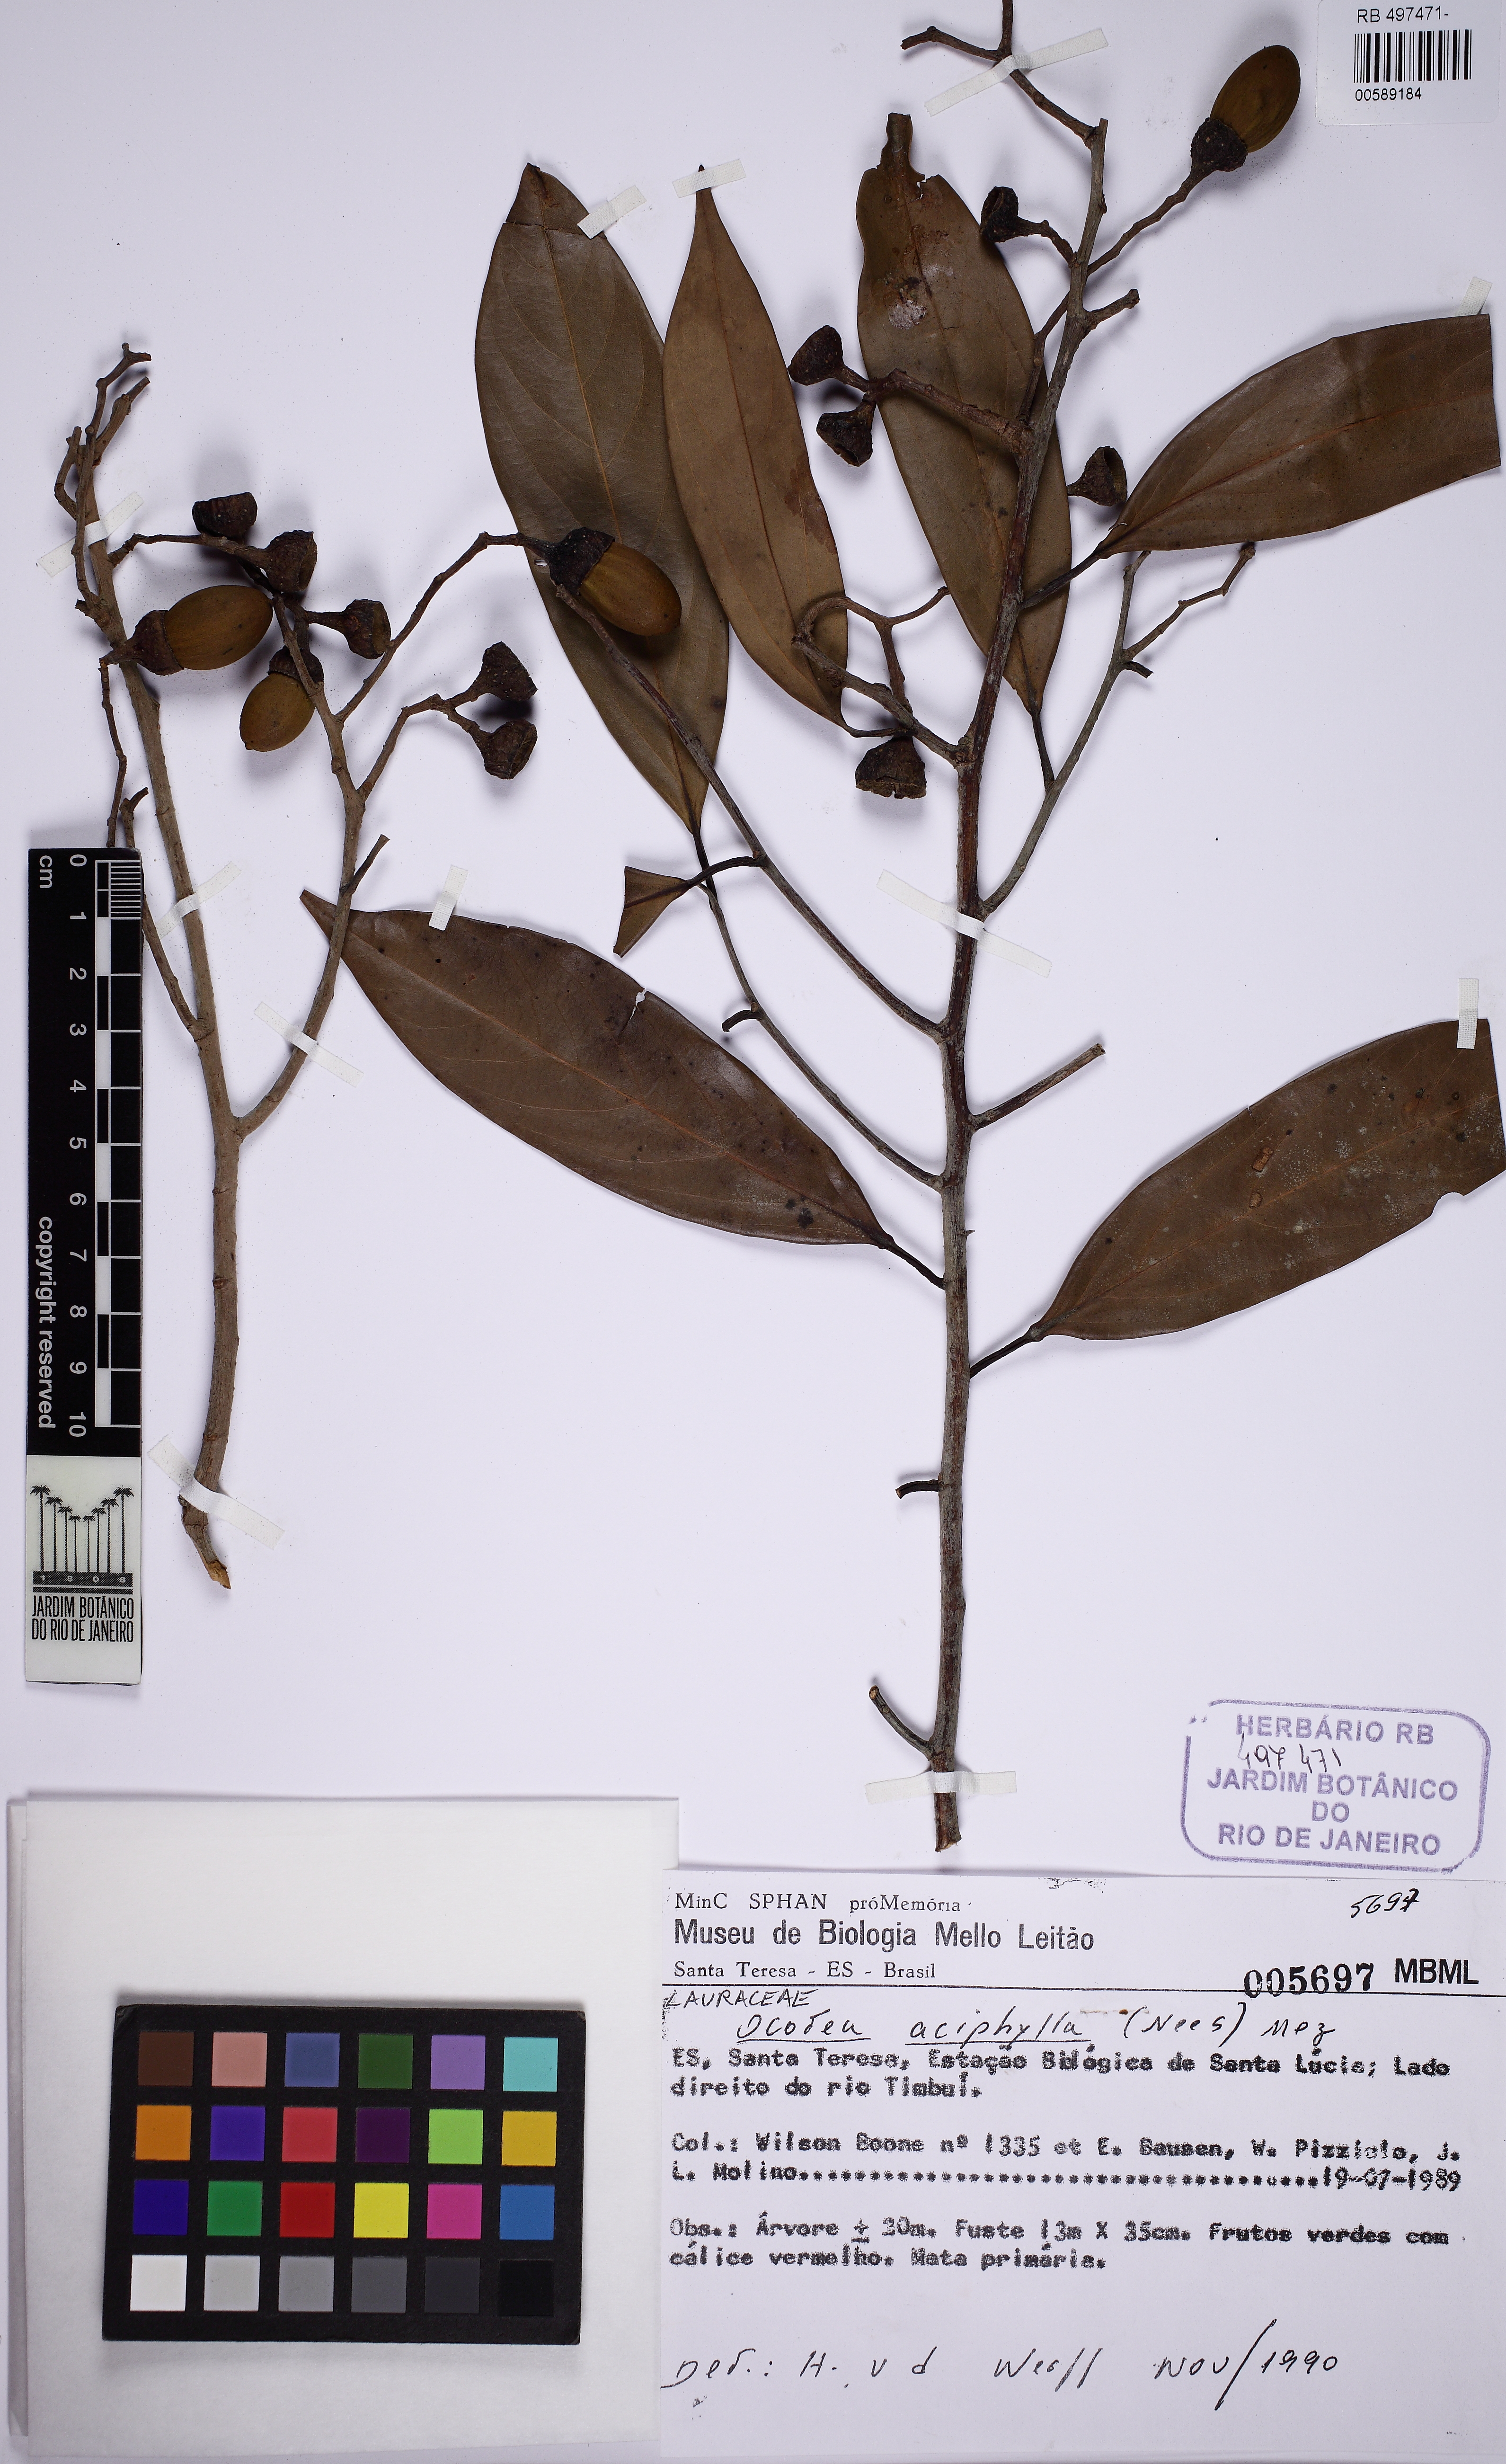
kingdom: Plantae
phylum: Tracheophyta
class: Magnoliopsida
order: Laurales
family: Lauraceae
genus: Ocotea
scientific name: Ocotea aciphylla
